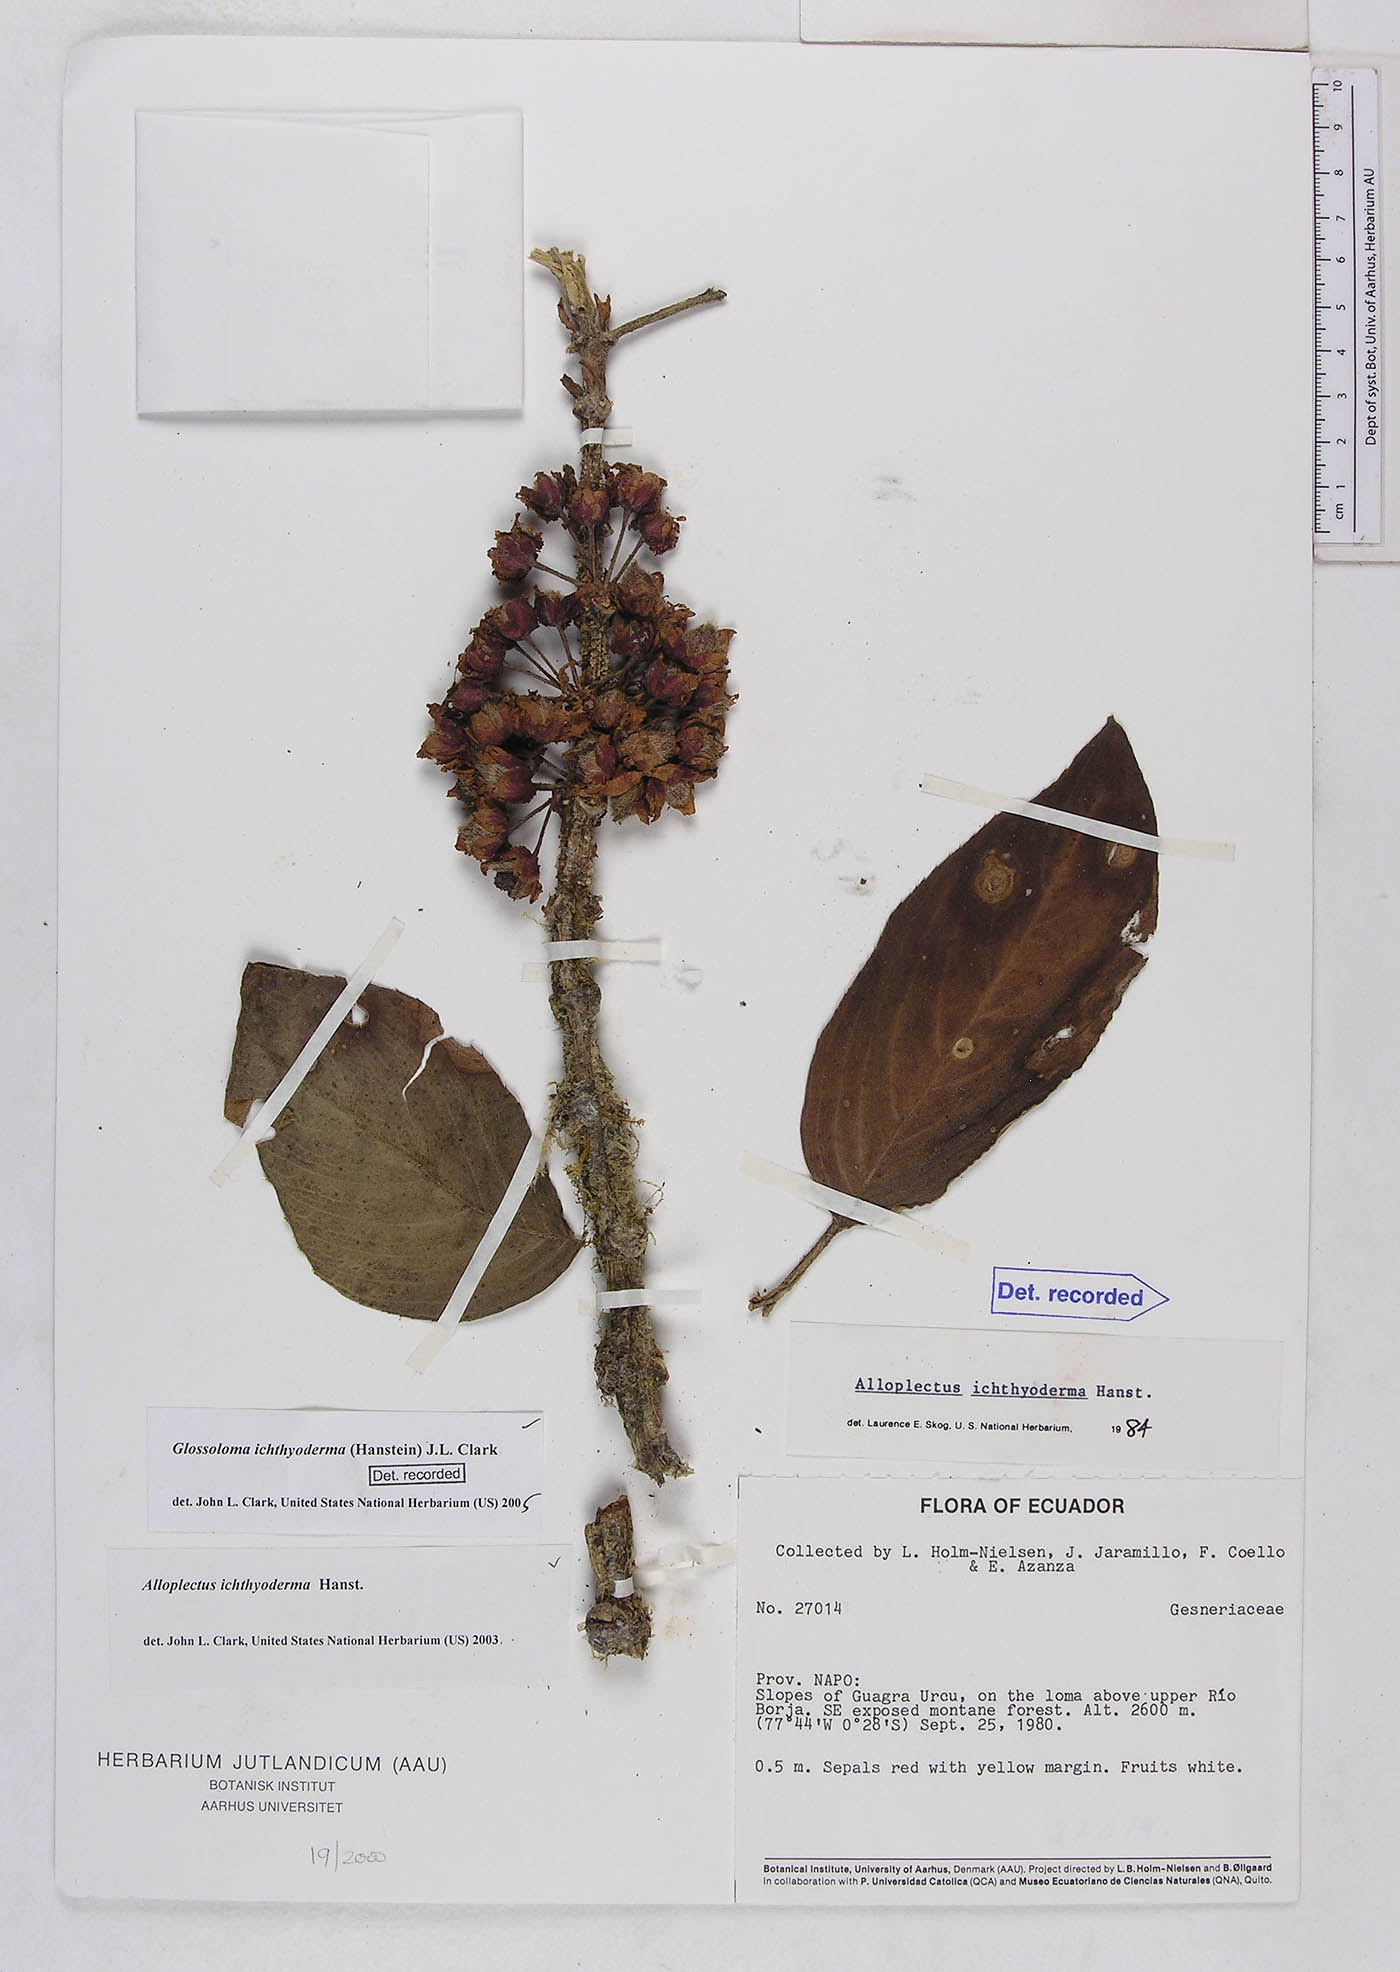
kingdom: Plantae
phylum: Tracheophyta
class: Magnoliopsida
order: Lamiales
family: Gesneriaceae
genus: Glossoloma
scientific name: Glossoloma ichthyoderma
